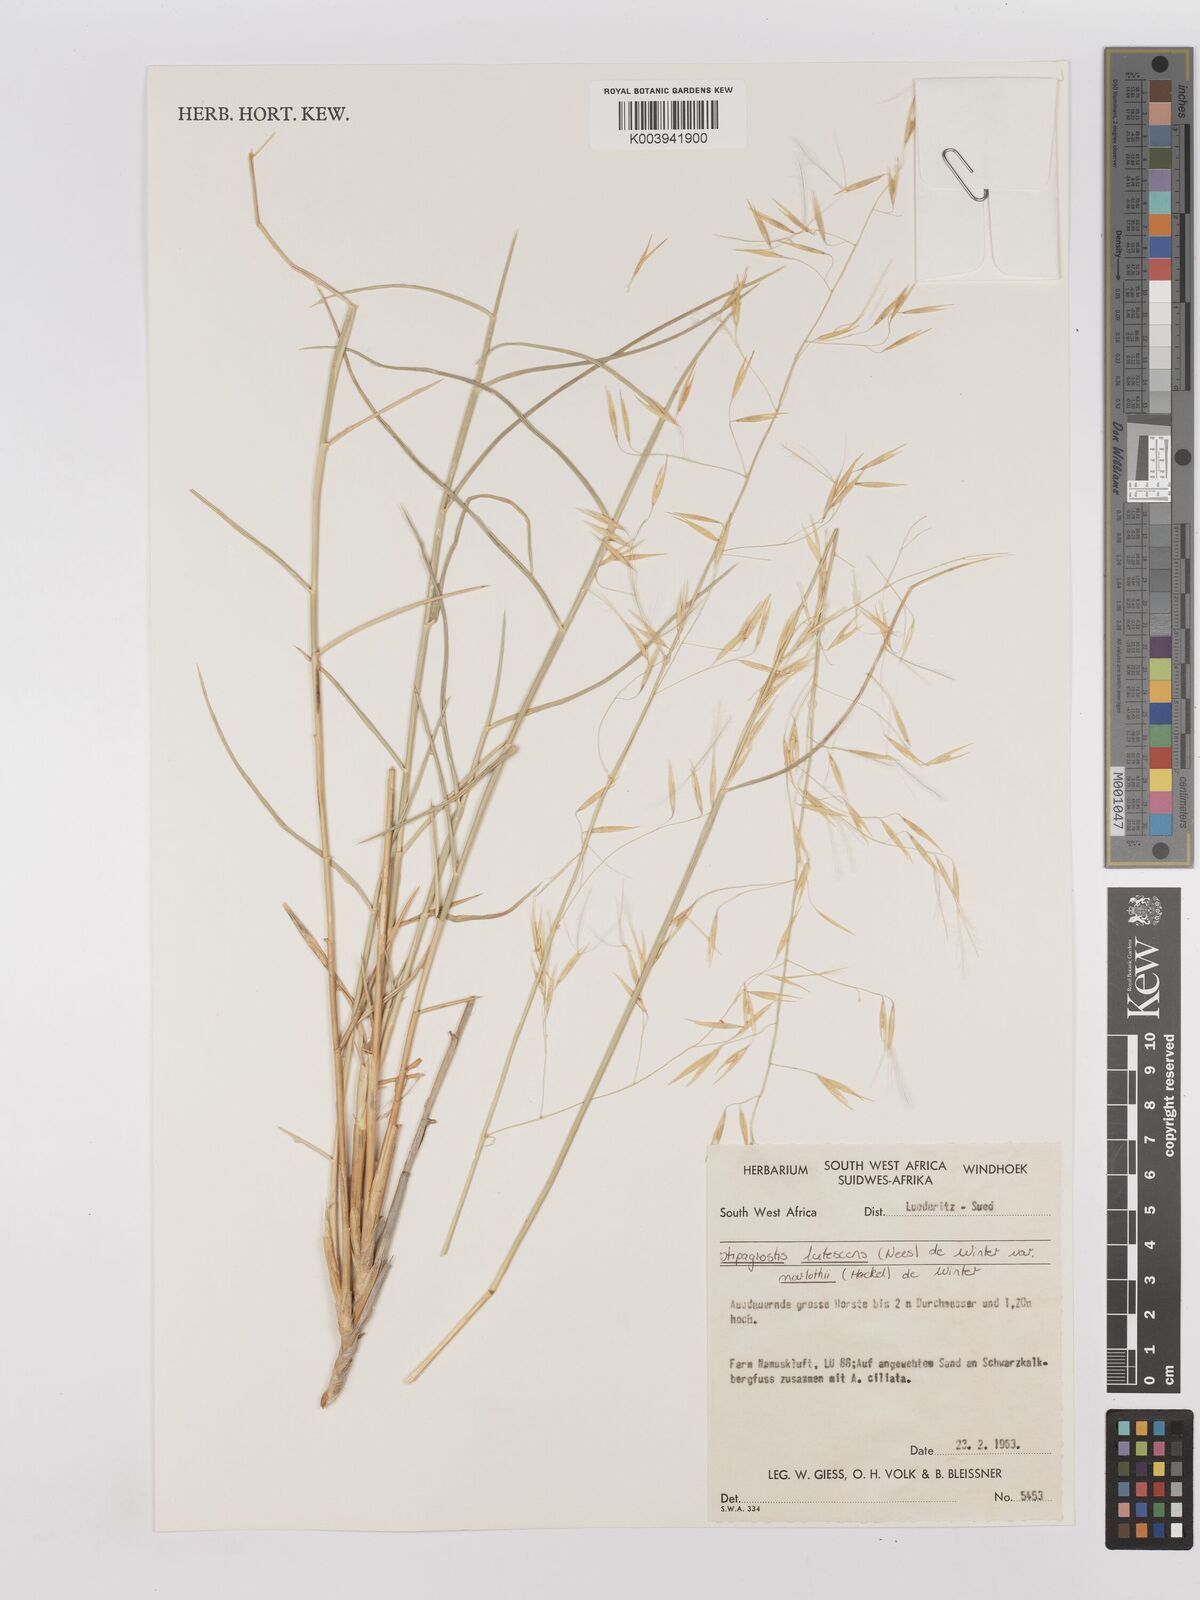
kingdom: Plantae
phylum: Tracheophyta
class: Liliopsida
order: Poales
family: Poaceae
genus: Stipagrostis
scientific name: Stipagrostis lutescens
